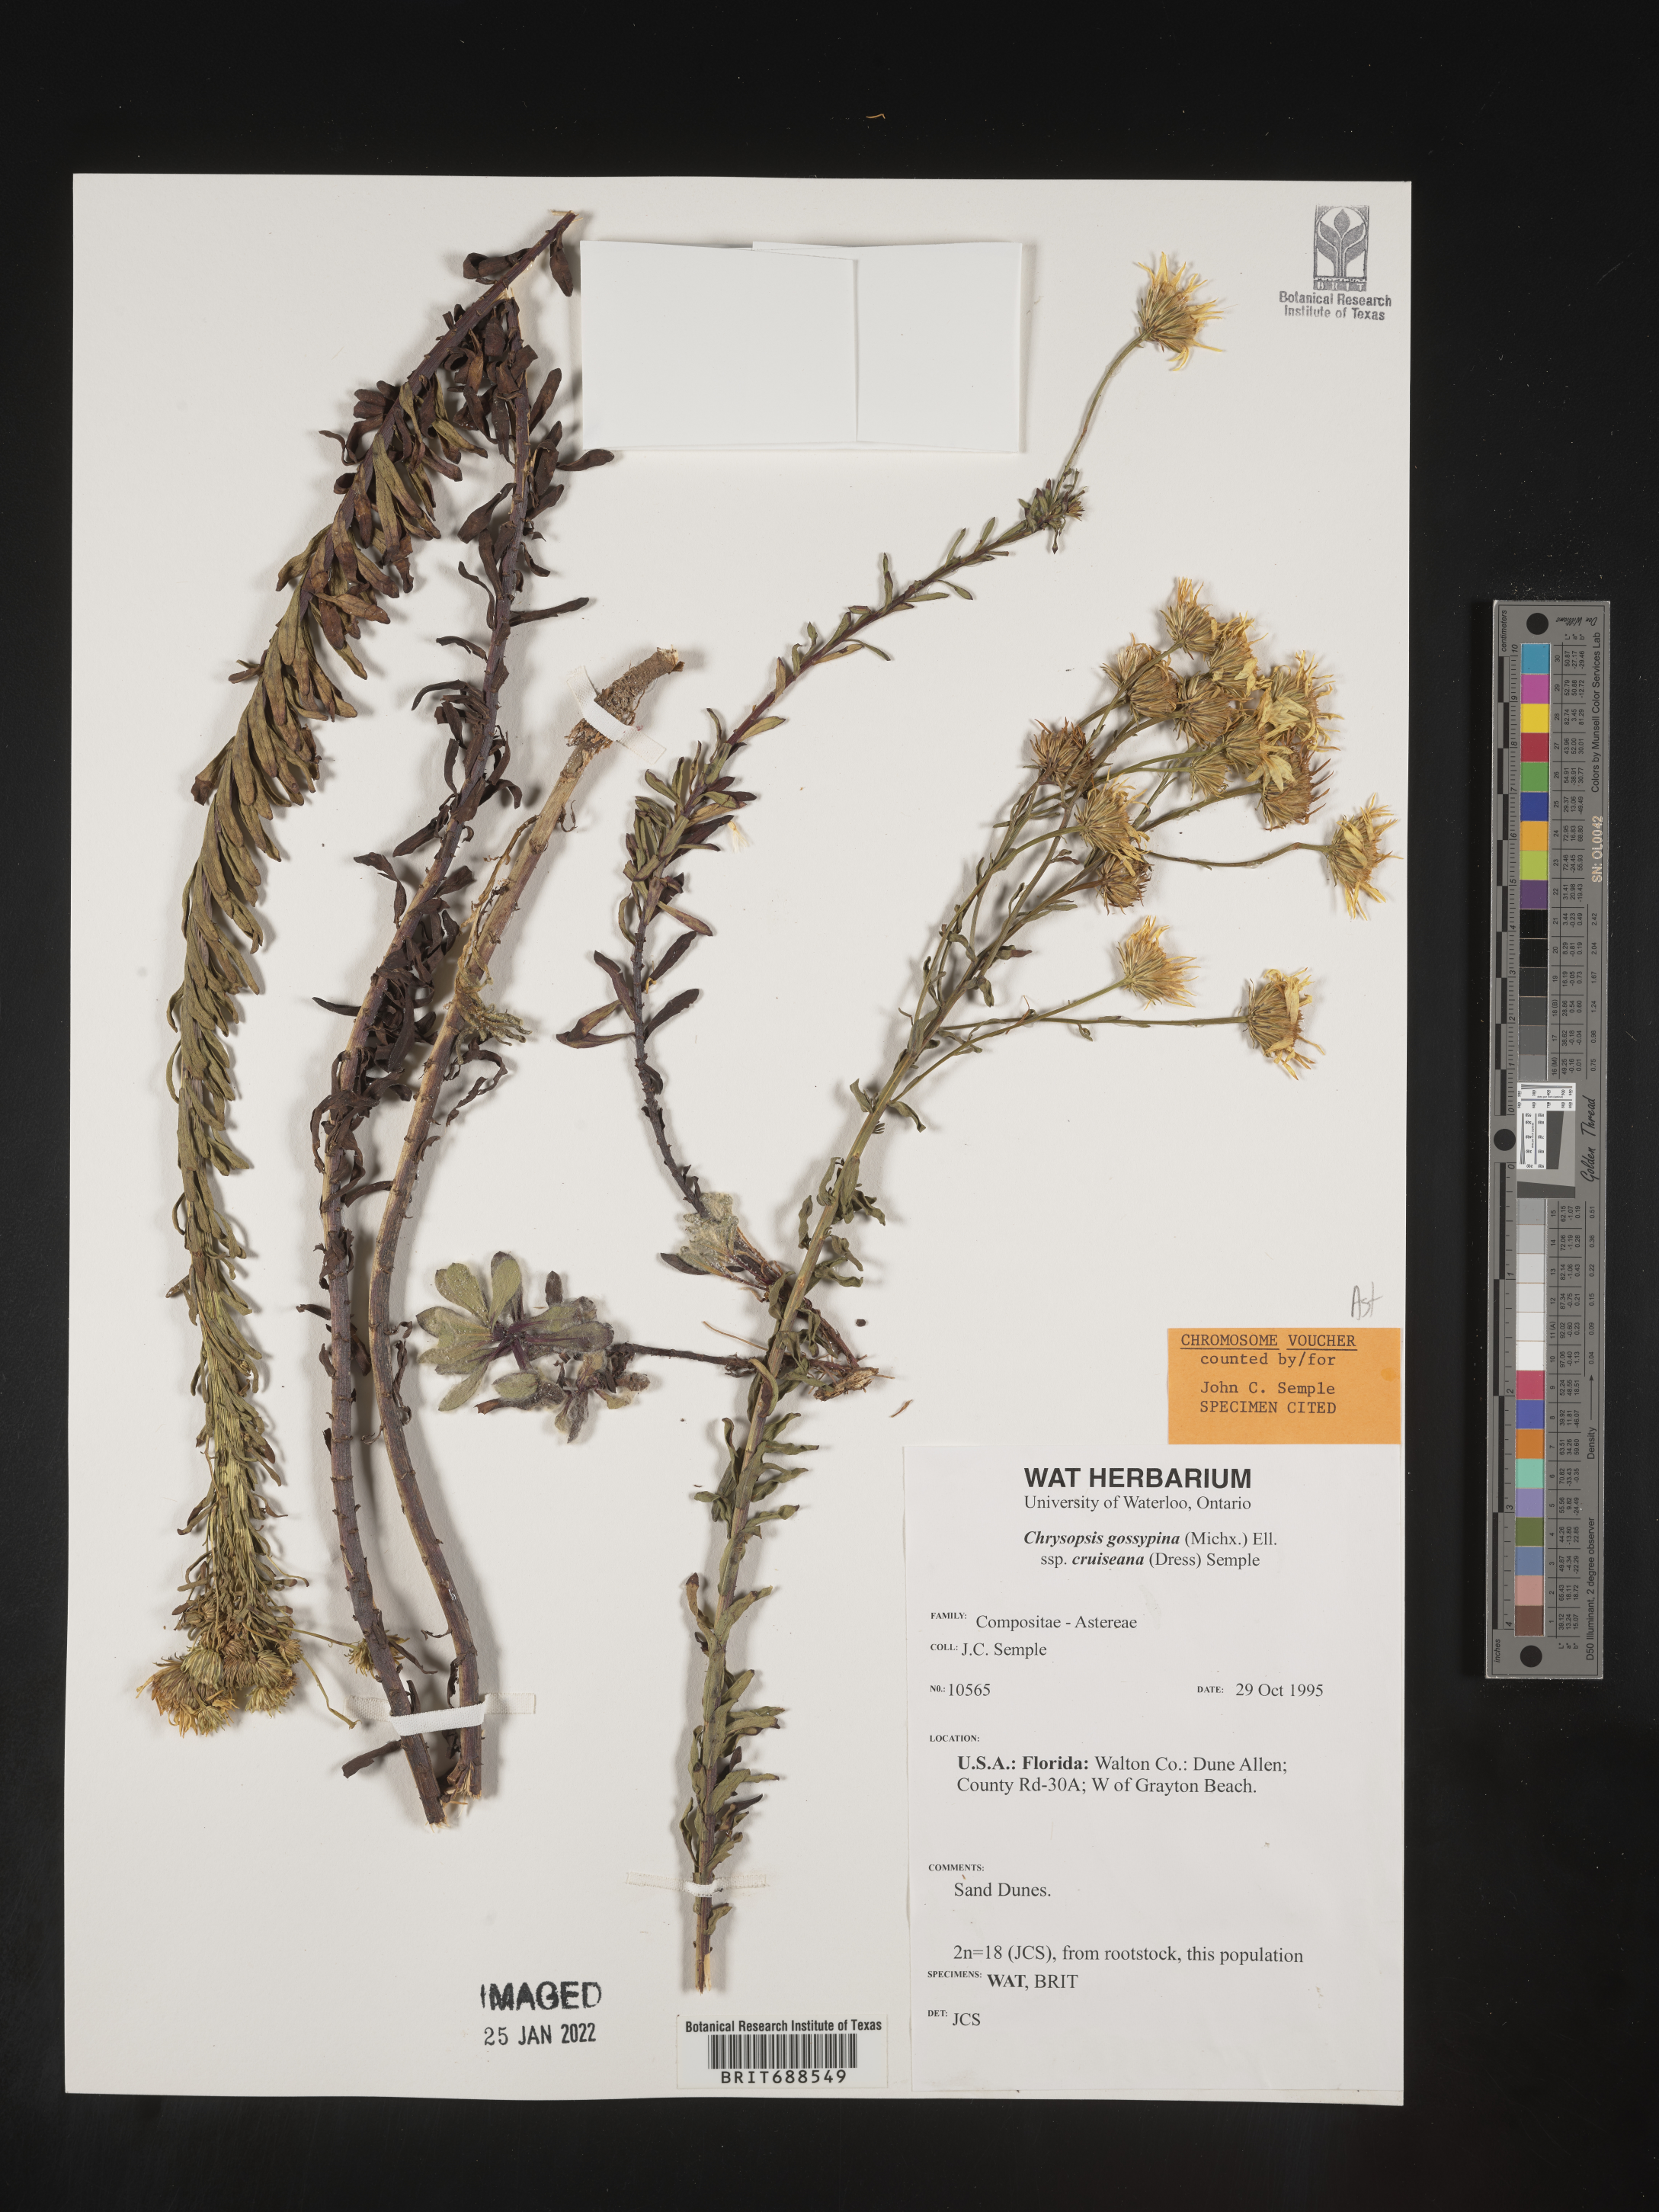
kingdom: Plantae
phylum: Tracheophyta
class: Magnoliopsida
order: Asterales
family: Asteraceae
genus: Chrysopsis
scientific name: Chrysopsis gossypina
